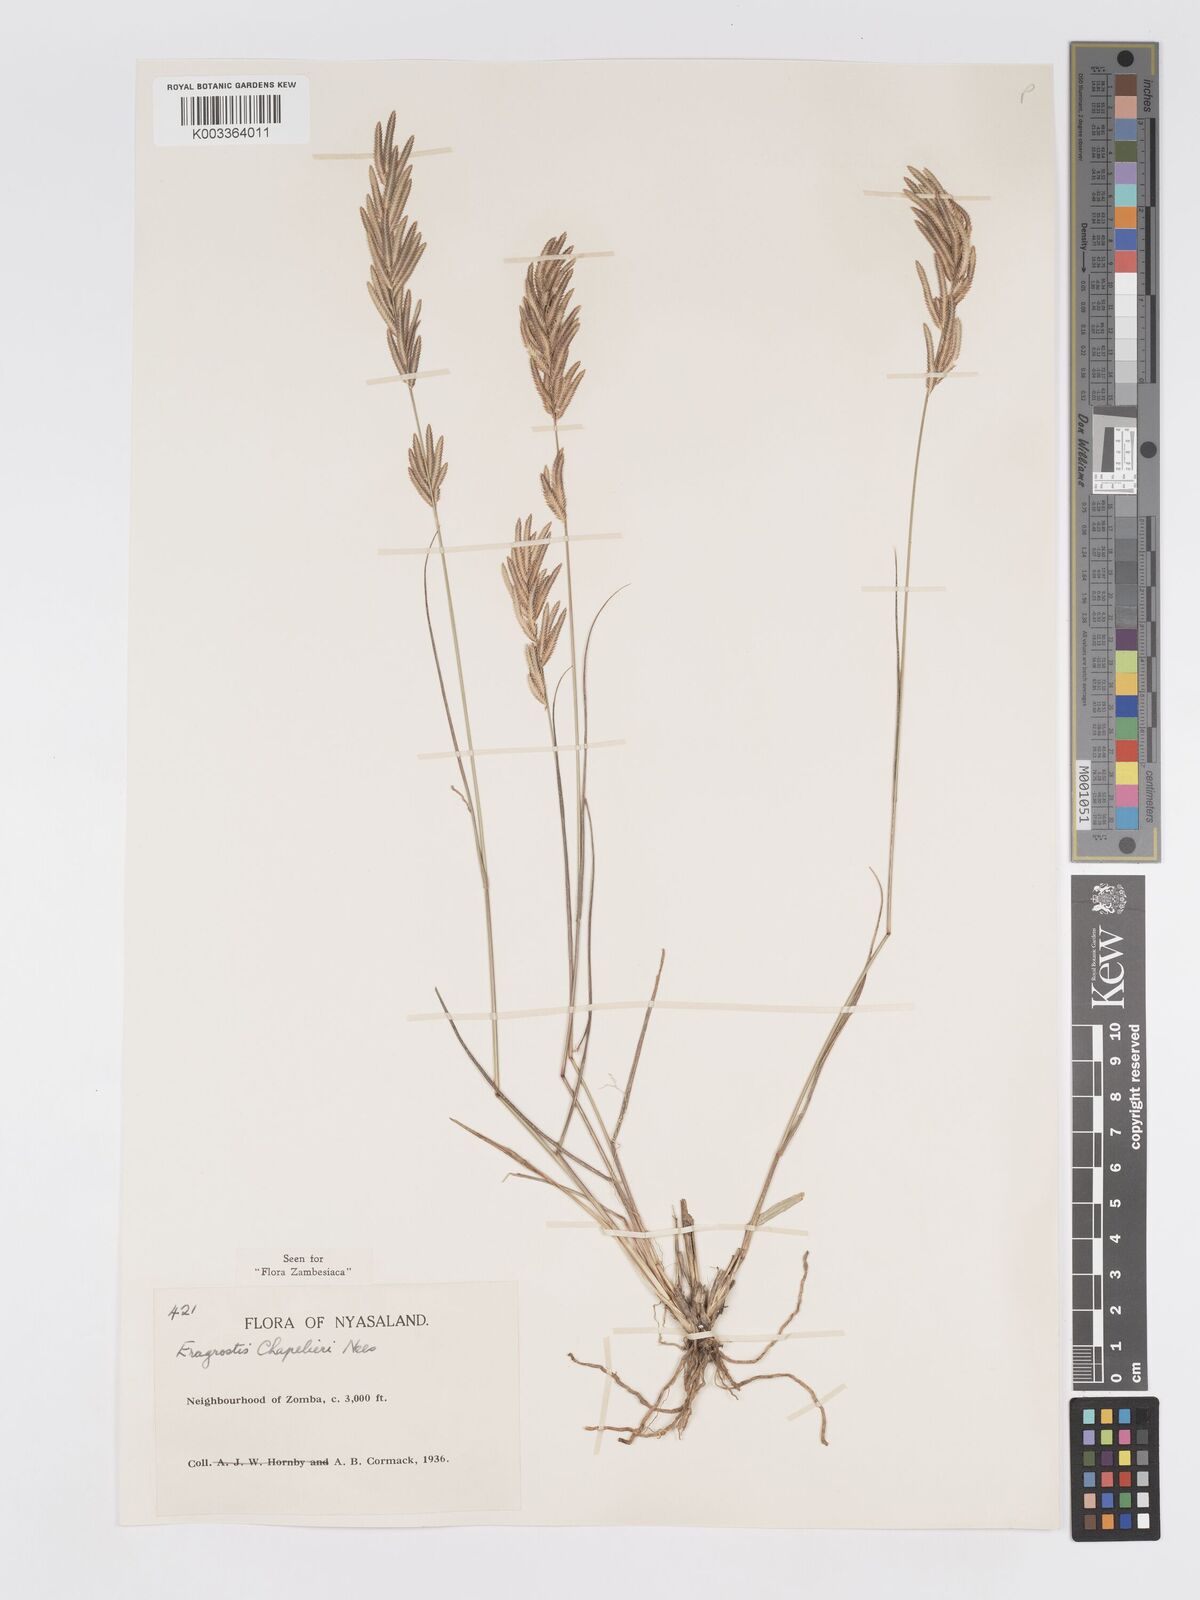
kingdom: Plantae
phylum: Tracheophyta
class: Liliopsida
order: Poales
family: Poaceae
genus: Eragrostis
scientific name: Eragrostis chapelieri
